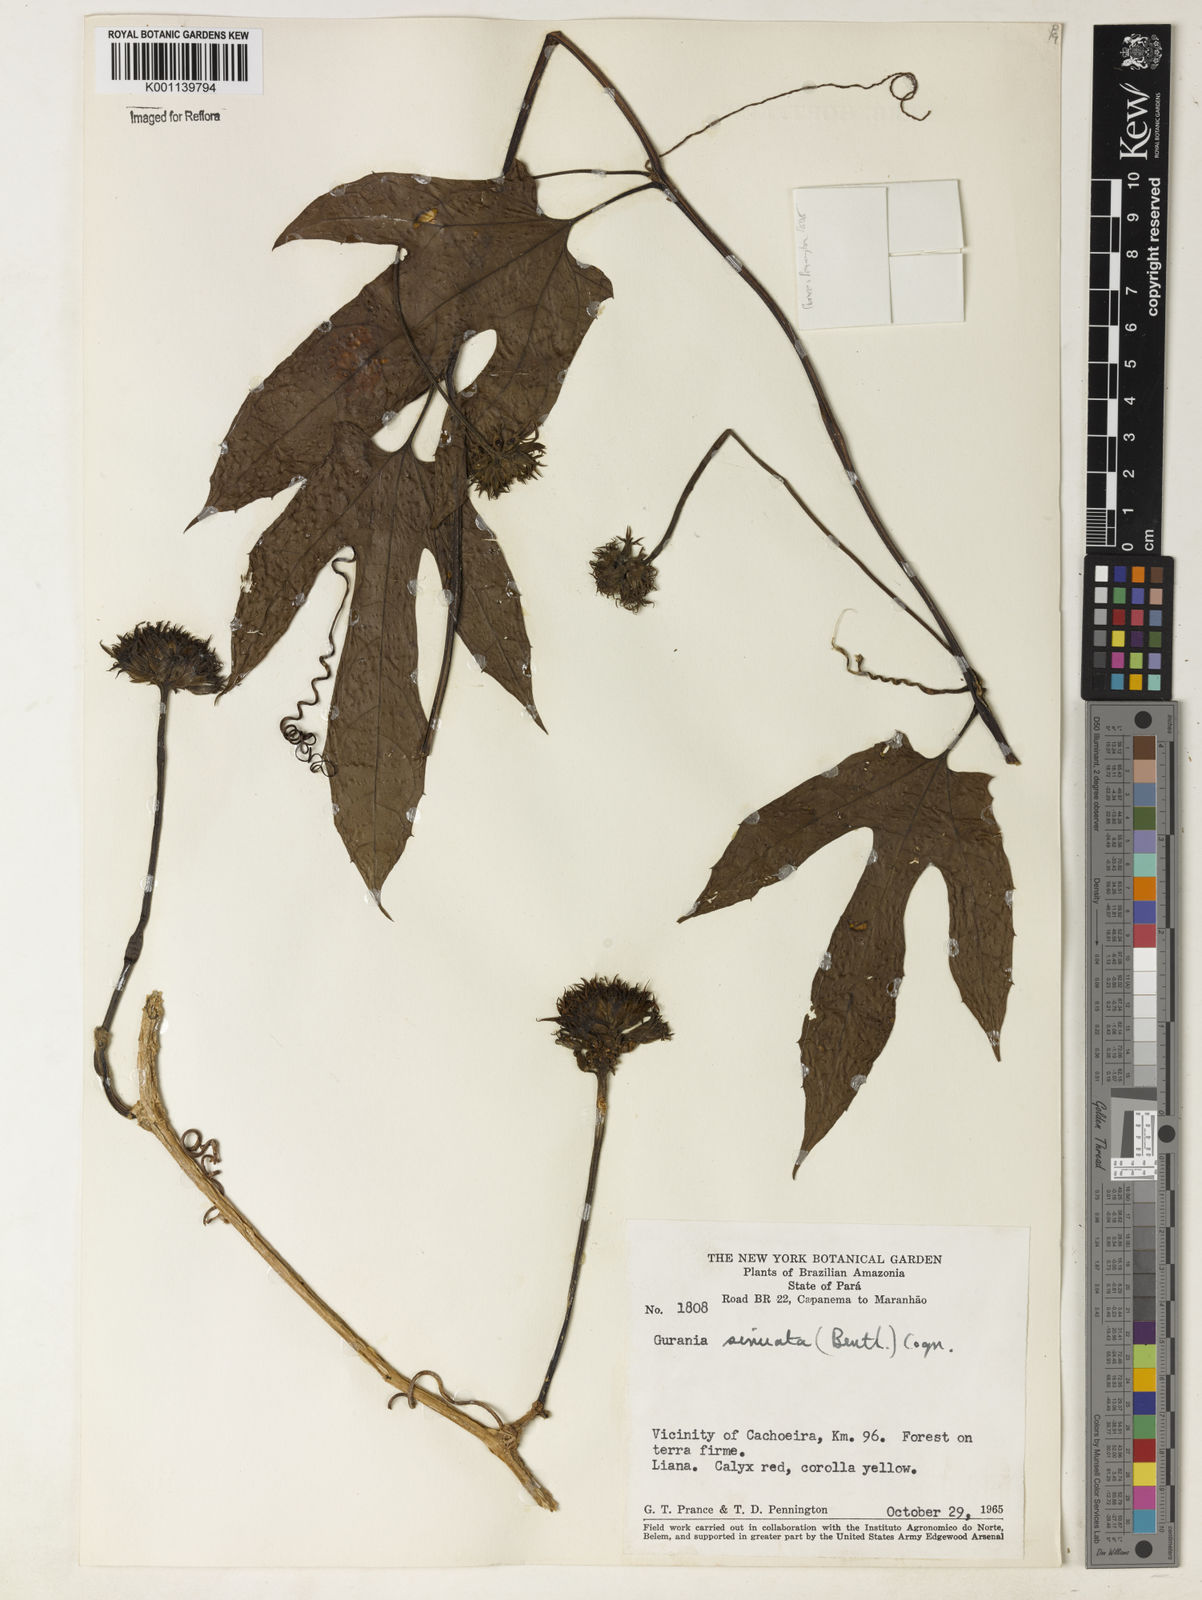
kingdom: Plantae
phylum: Tracheophyta
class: Magnoliopsida
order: Cucurbitales
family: Cucurbitaceae
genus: Gurania
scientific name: Gurania sinuata
